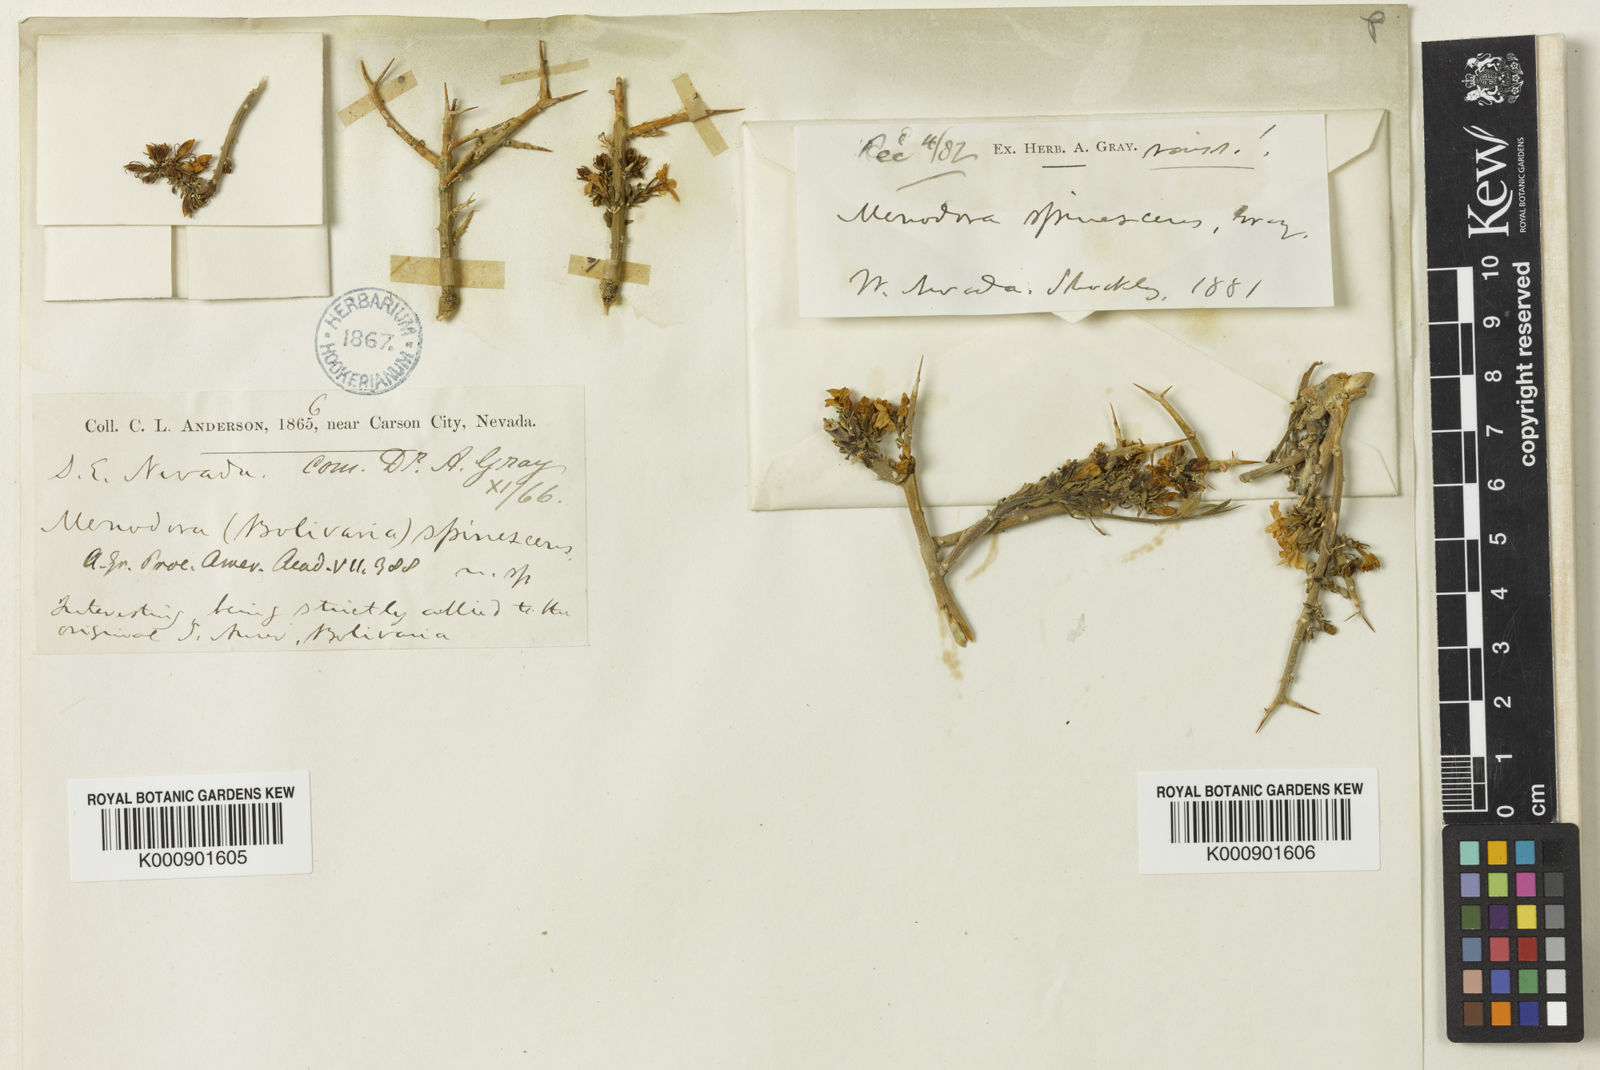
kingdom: Plantae
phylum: Tracheophyta
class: Magnoliopsida
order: Lamiales
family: Oleaceae
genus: Menodora
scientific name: Menodora spinescens
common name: Spiny menodora
